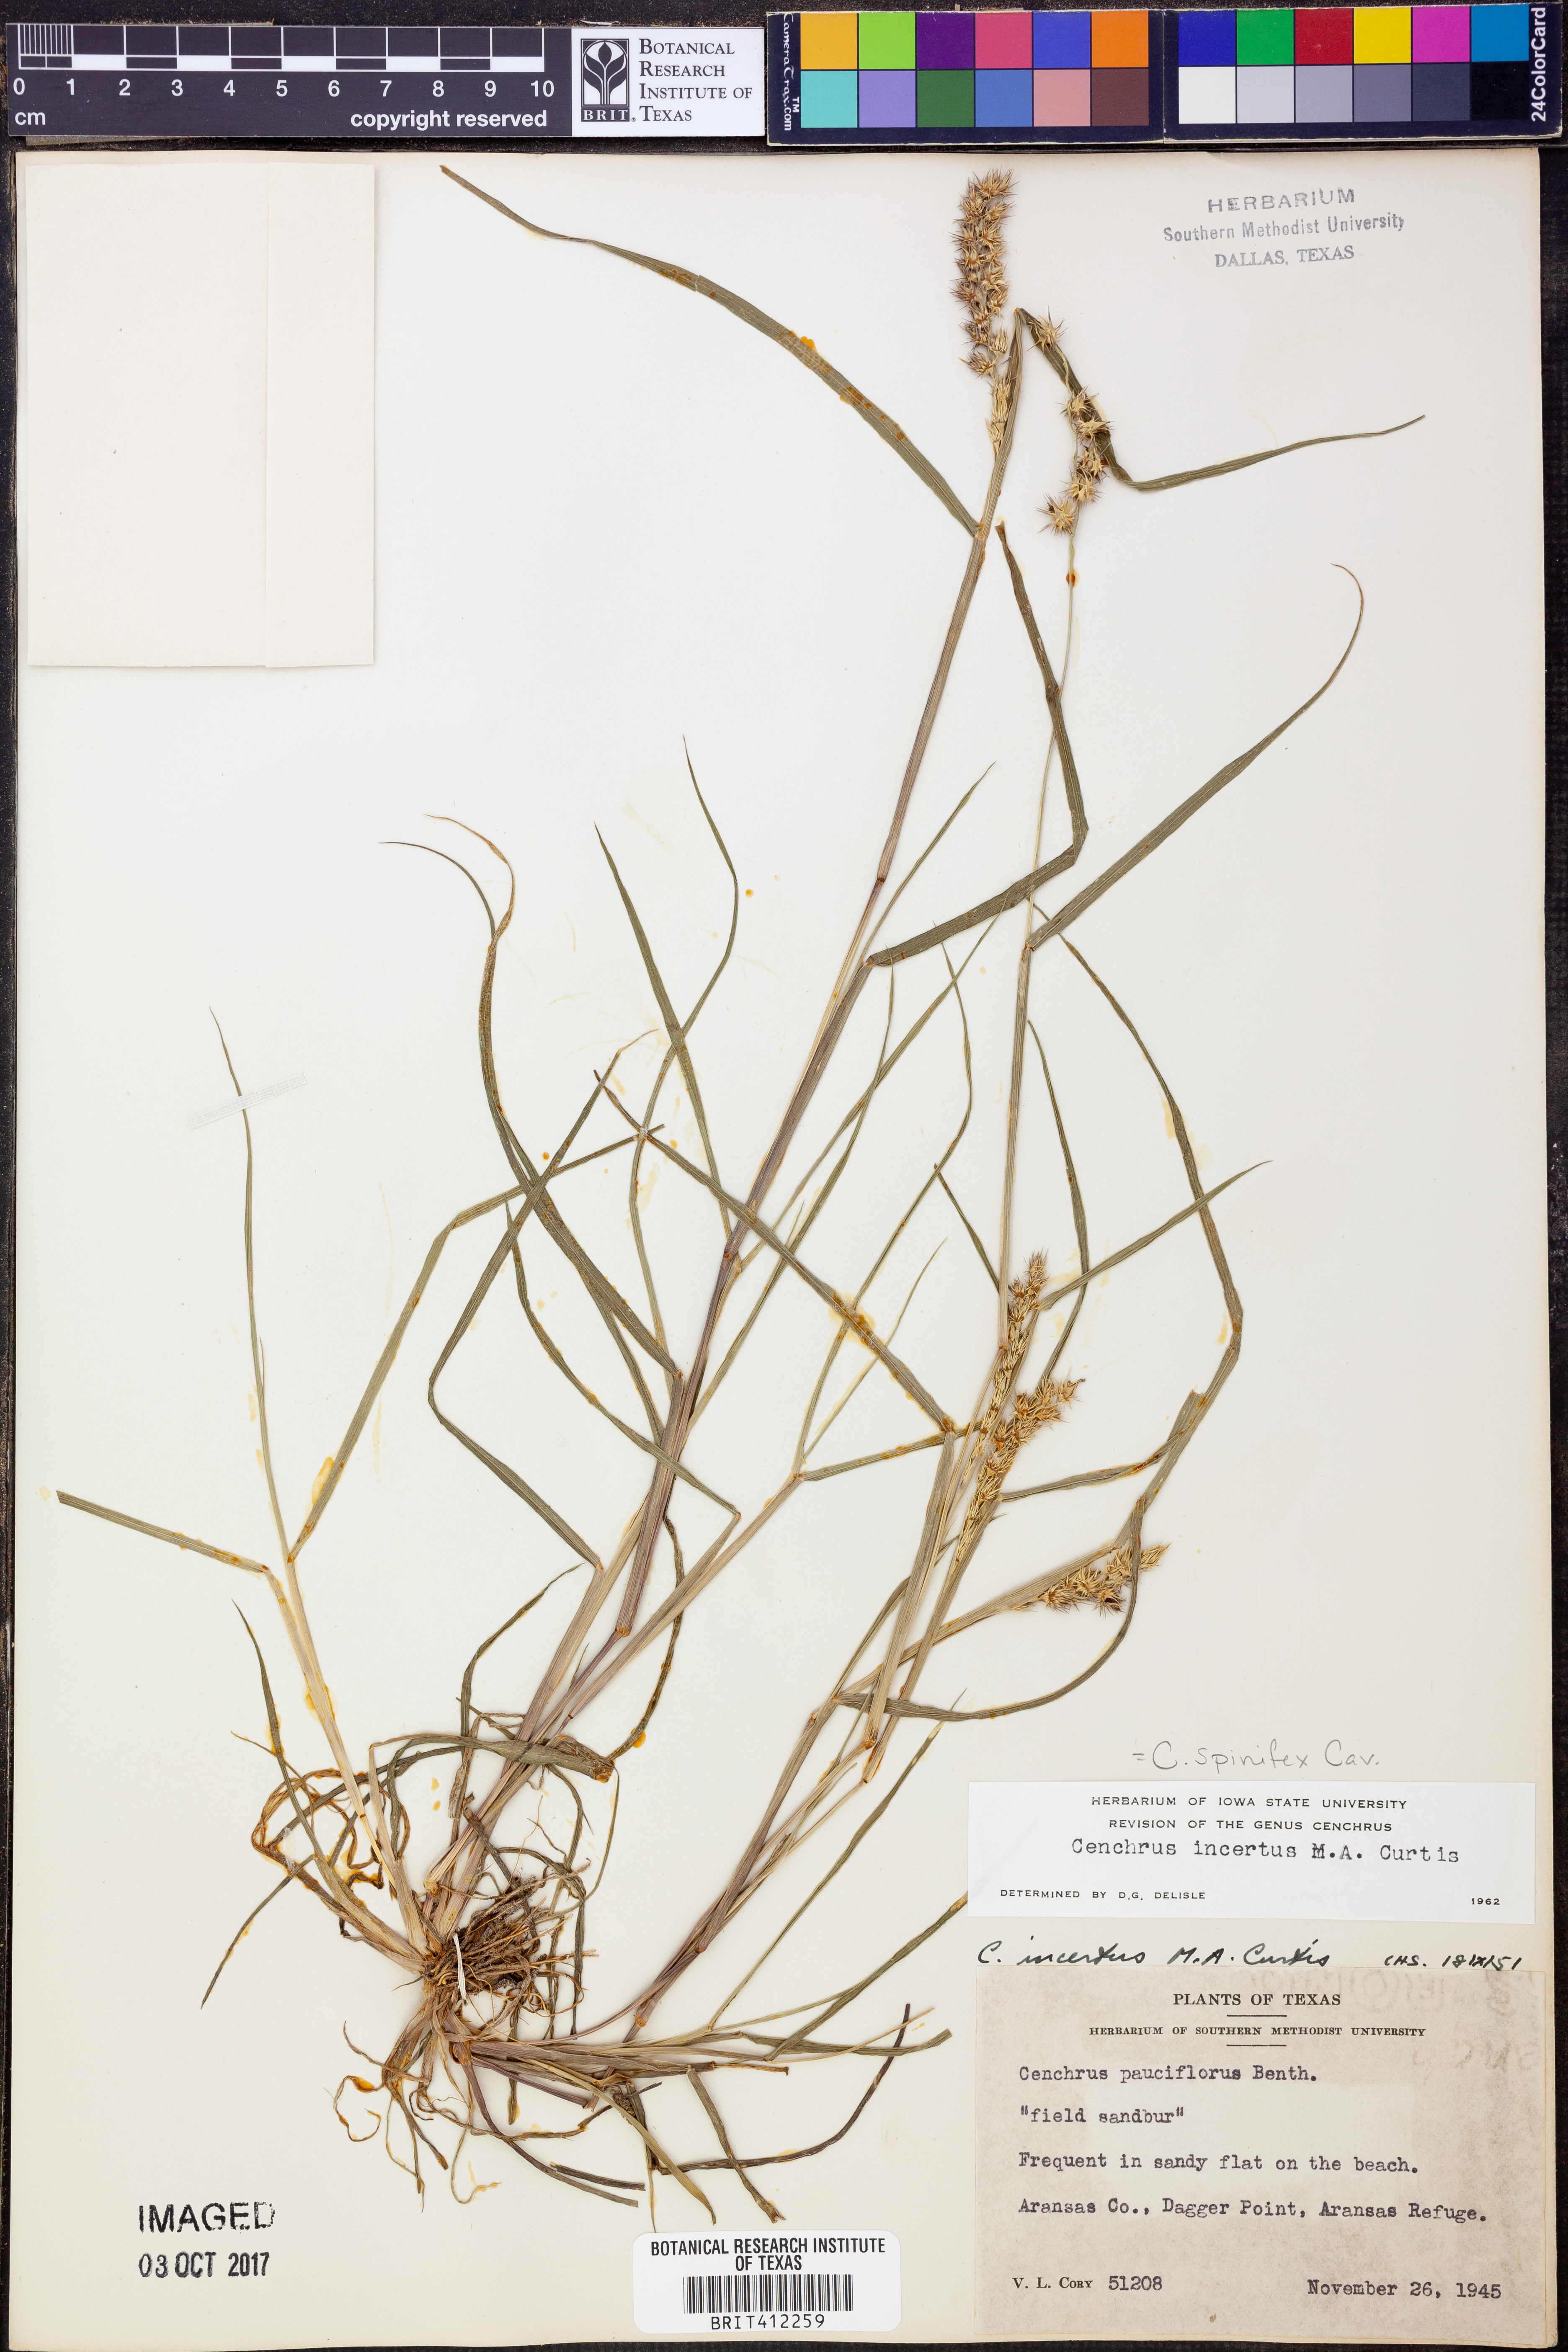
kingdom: Plantae
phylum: Tracheophyta
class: Liliopsida
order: Poales
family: Poaceae
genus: Cenchrus
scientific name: Cenchrus spinifex
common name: Coast sandbur
